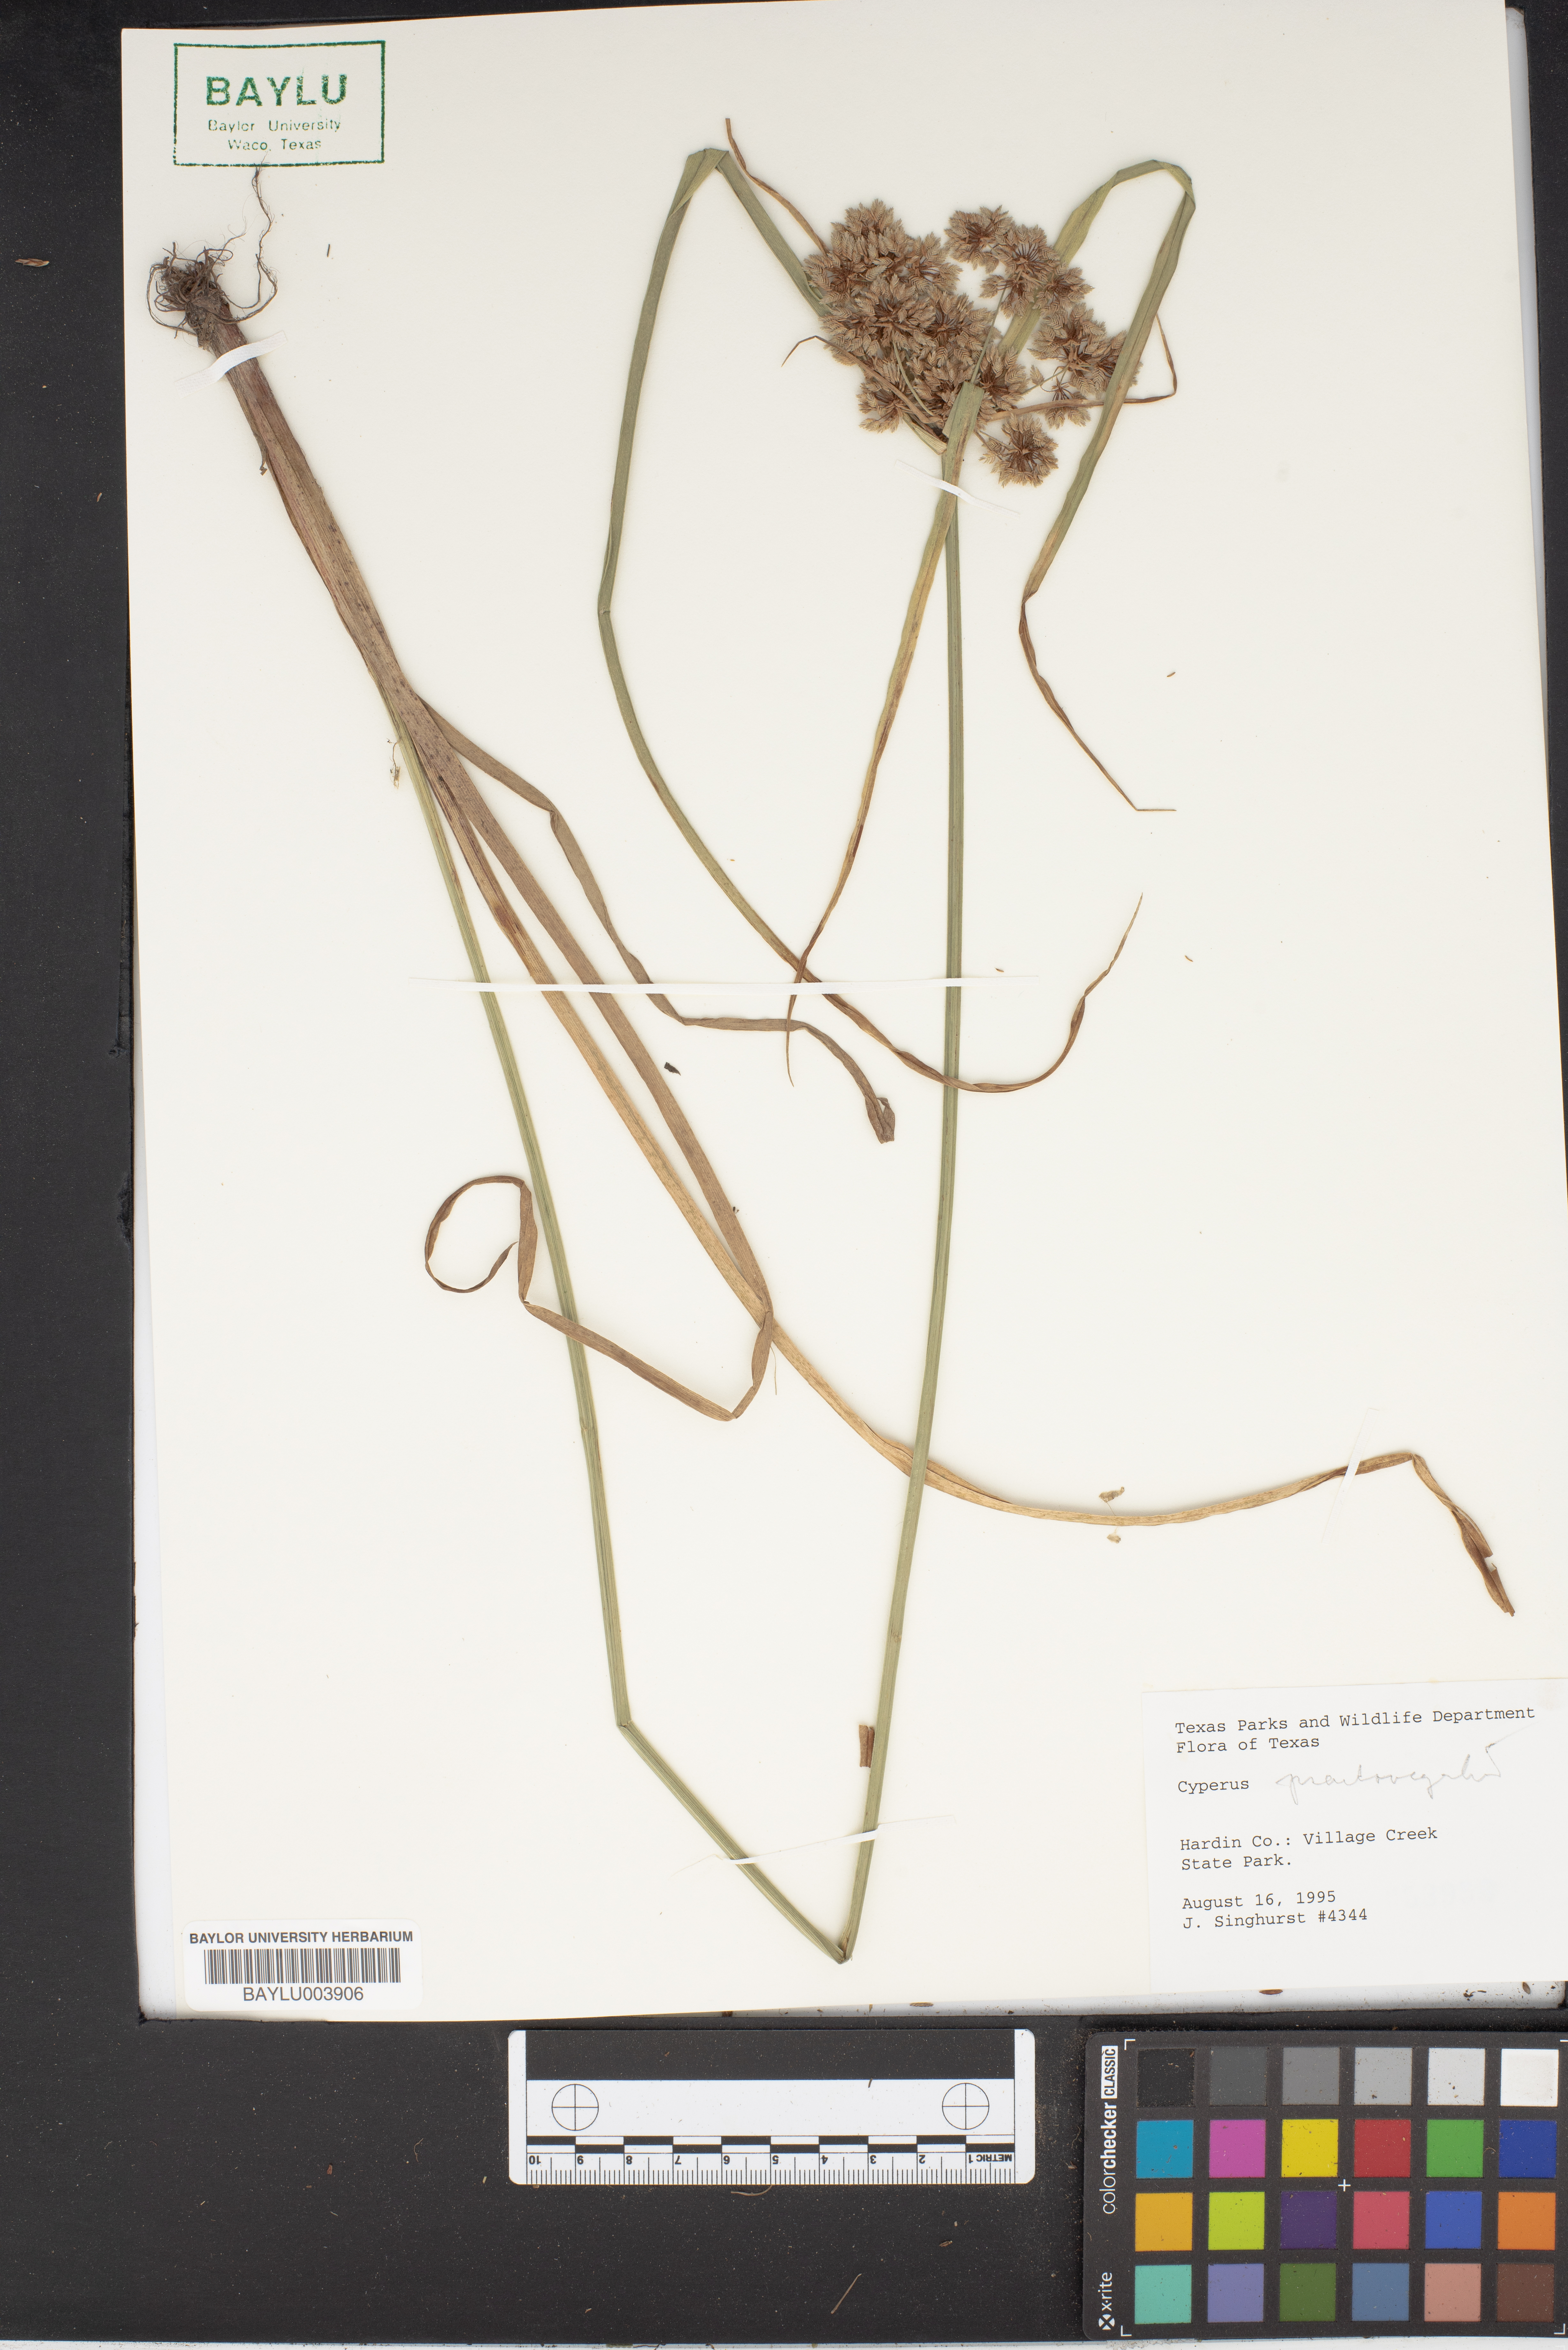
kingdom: Plantae
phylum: Tracheophyta
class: Liliopsida
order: Poales
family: Cyperaceae
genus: Cyperus
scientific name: Cyperus strigosus
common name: False nutsedge
